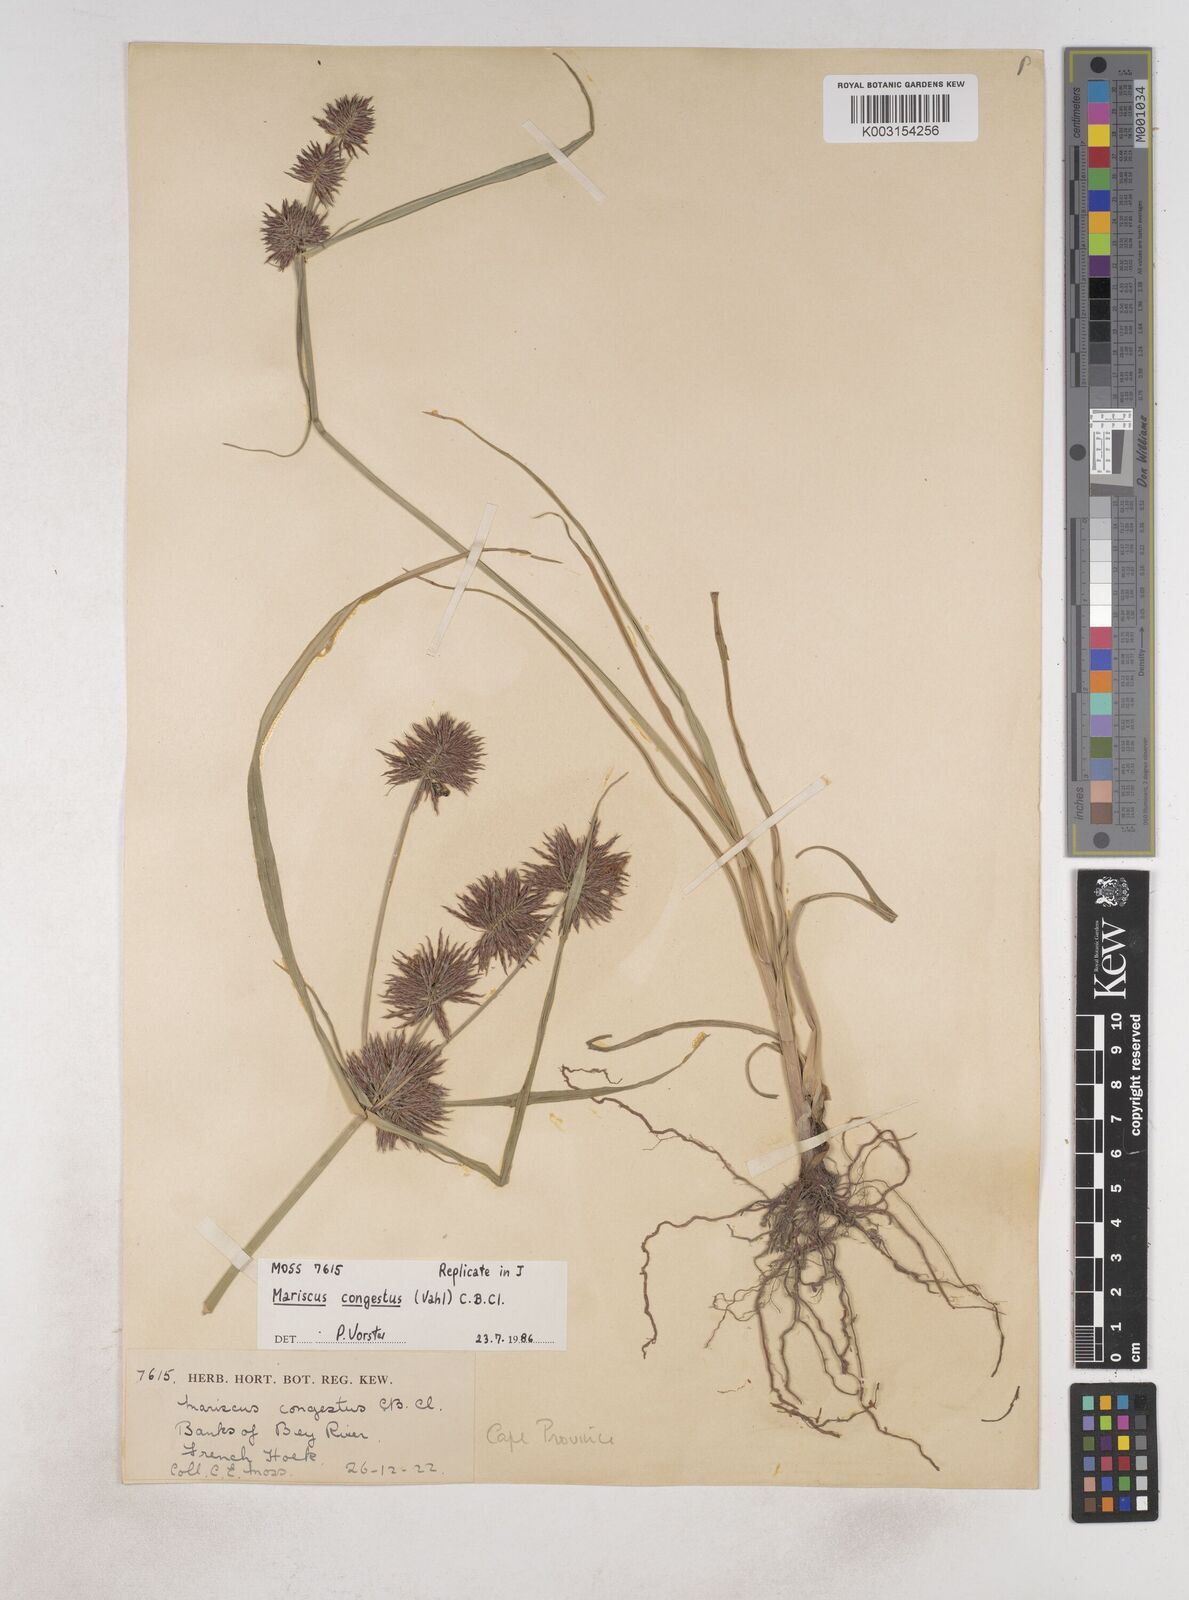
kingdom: Plantae
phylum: Tracheophyta
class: Liliopsida
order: Poales
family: Cyperaceae
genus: Cyperus
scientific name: Cyperus congestus
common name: Dense flat sedge
